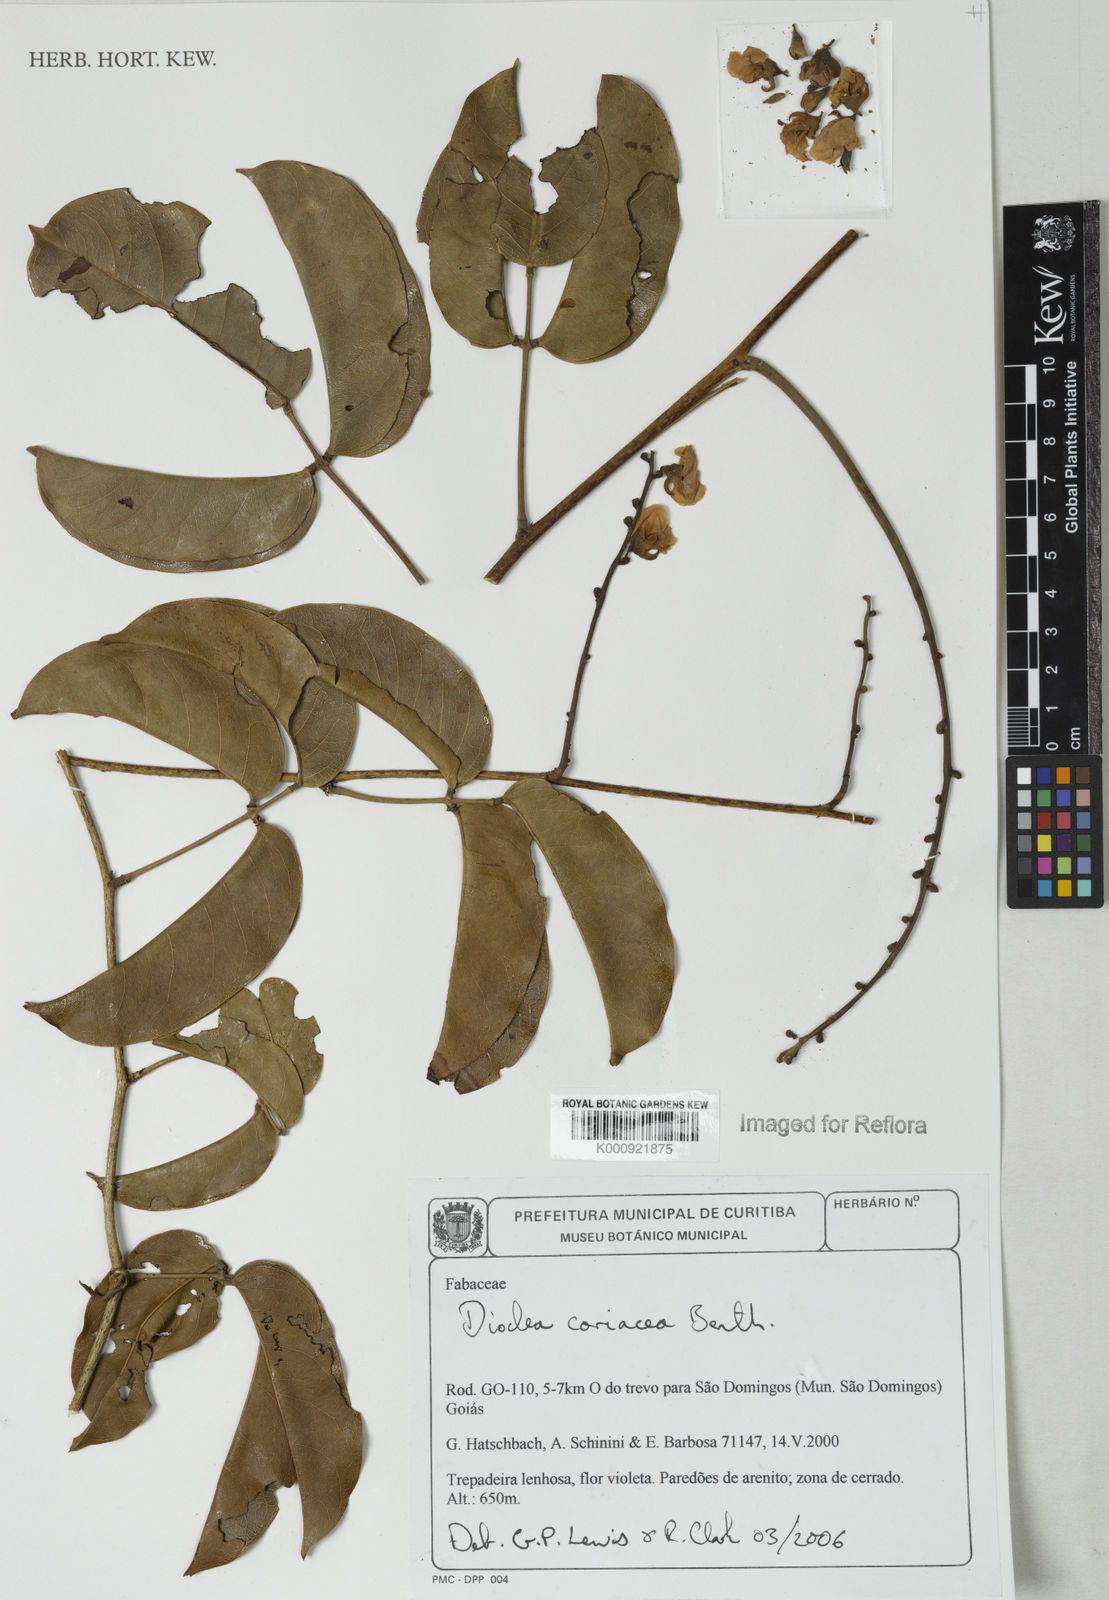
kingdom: Plantae
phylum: Tracheophyta
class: Magnoliopsida
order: Fabales
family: Fabaceae
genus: Macropsychanthus
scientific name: Macropsychanthus coriaceus
